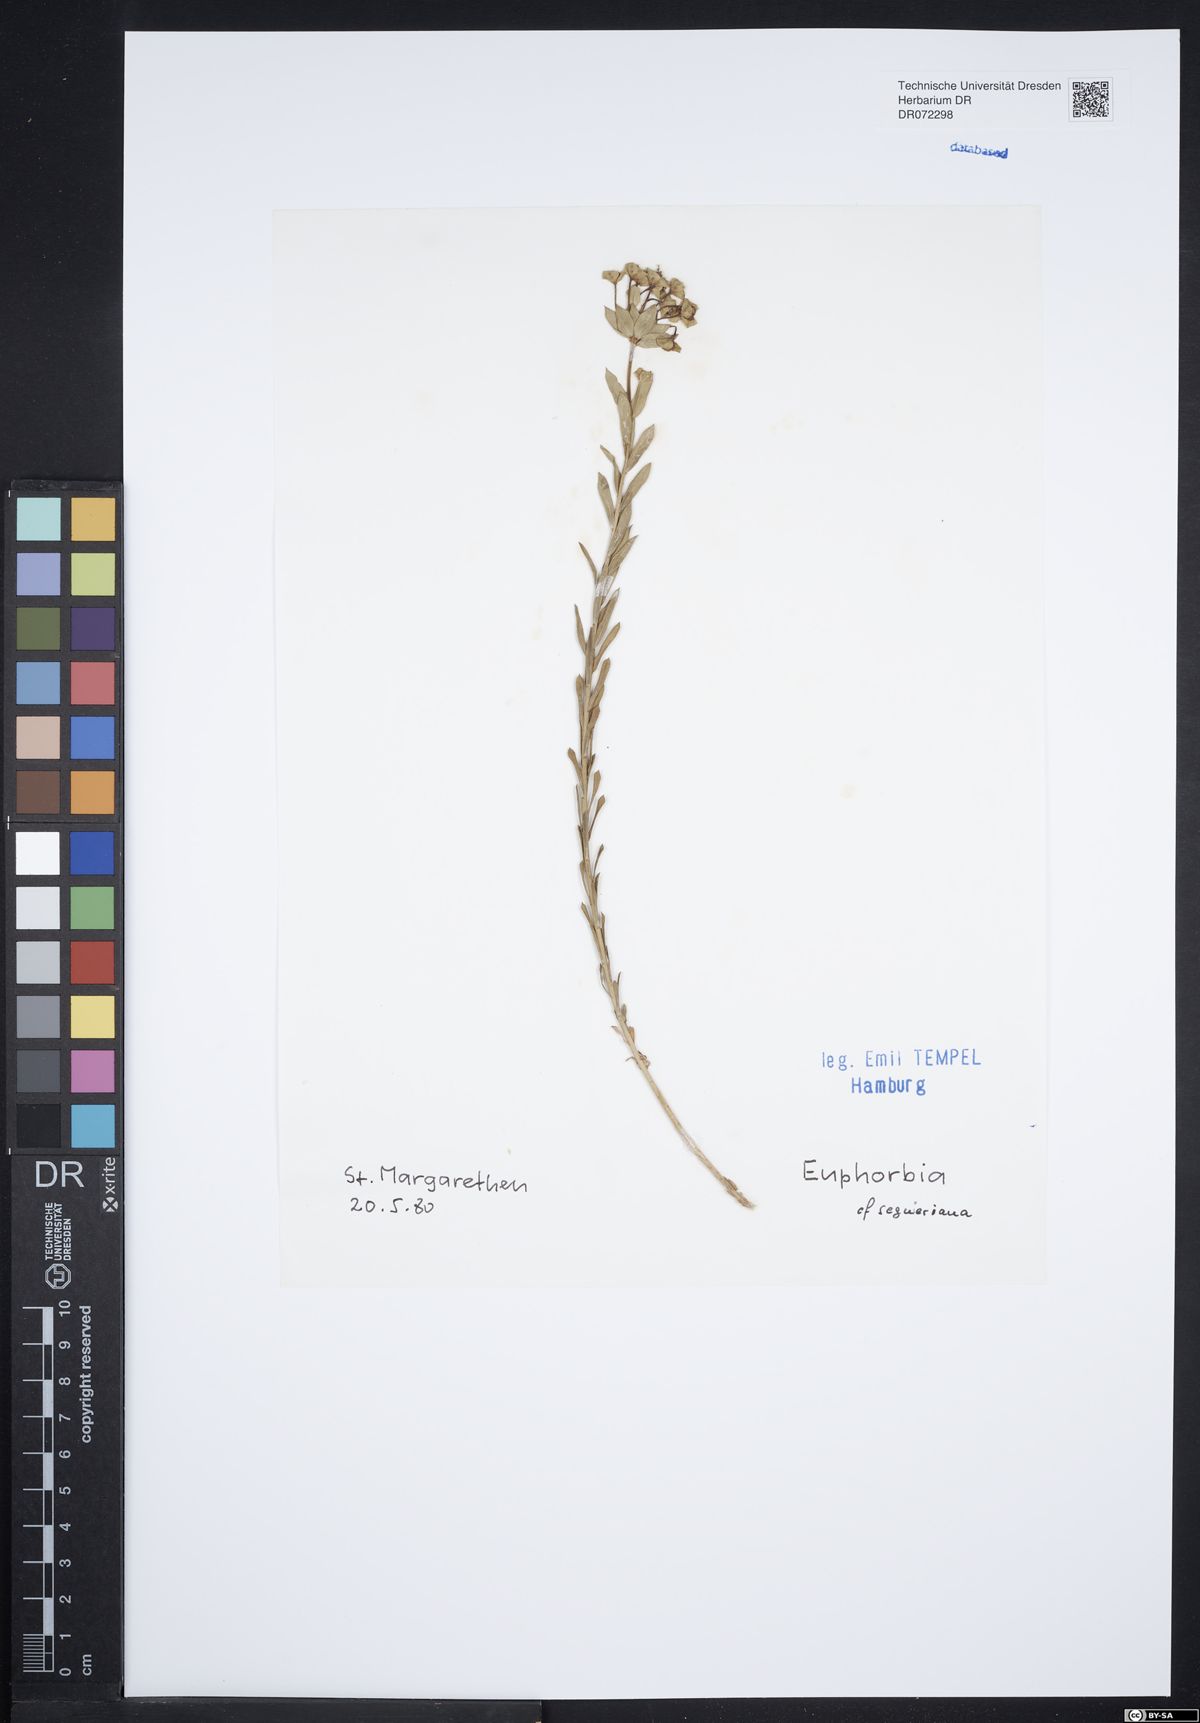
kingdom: Plantae
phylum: Tracheophyta
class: Magnoliopsida
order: Malpighiales
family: Euphorbiaceae
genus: Euphorbia
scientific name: Euphorbia seguieriana
